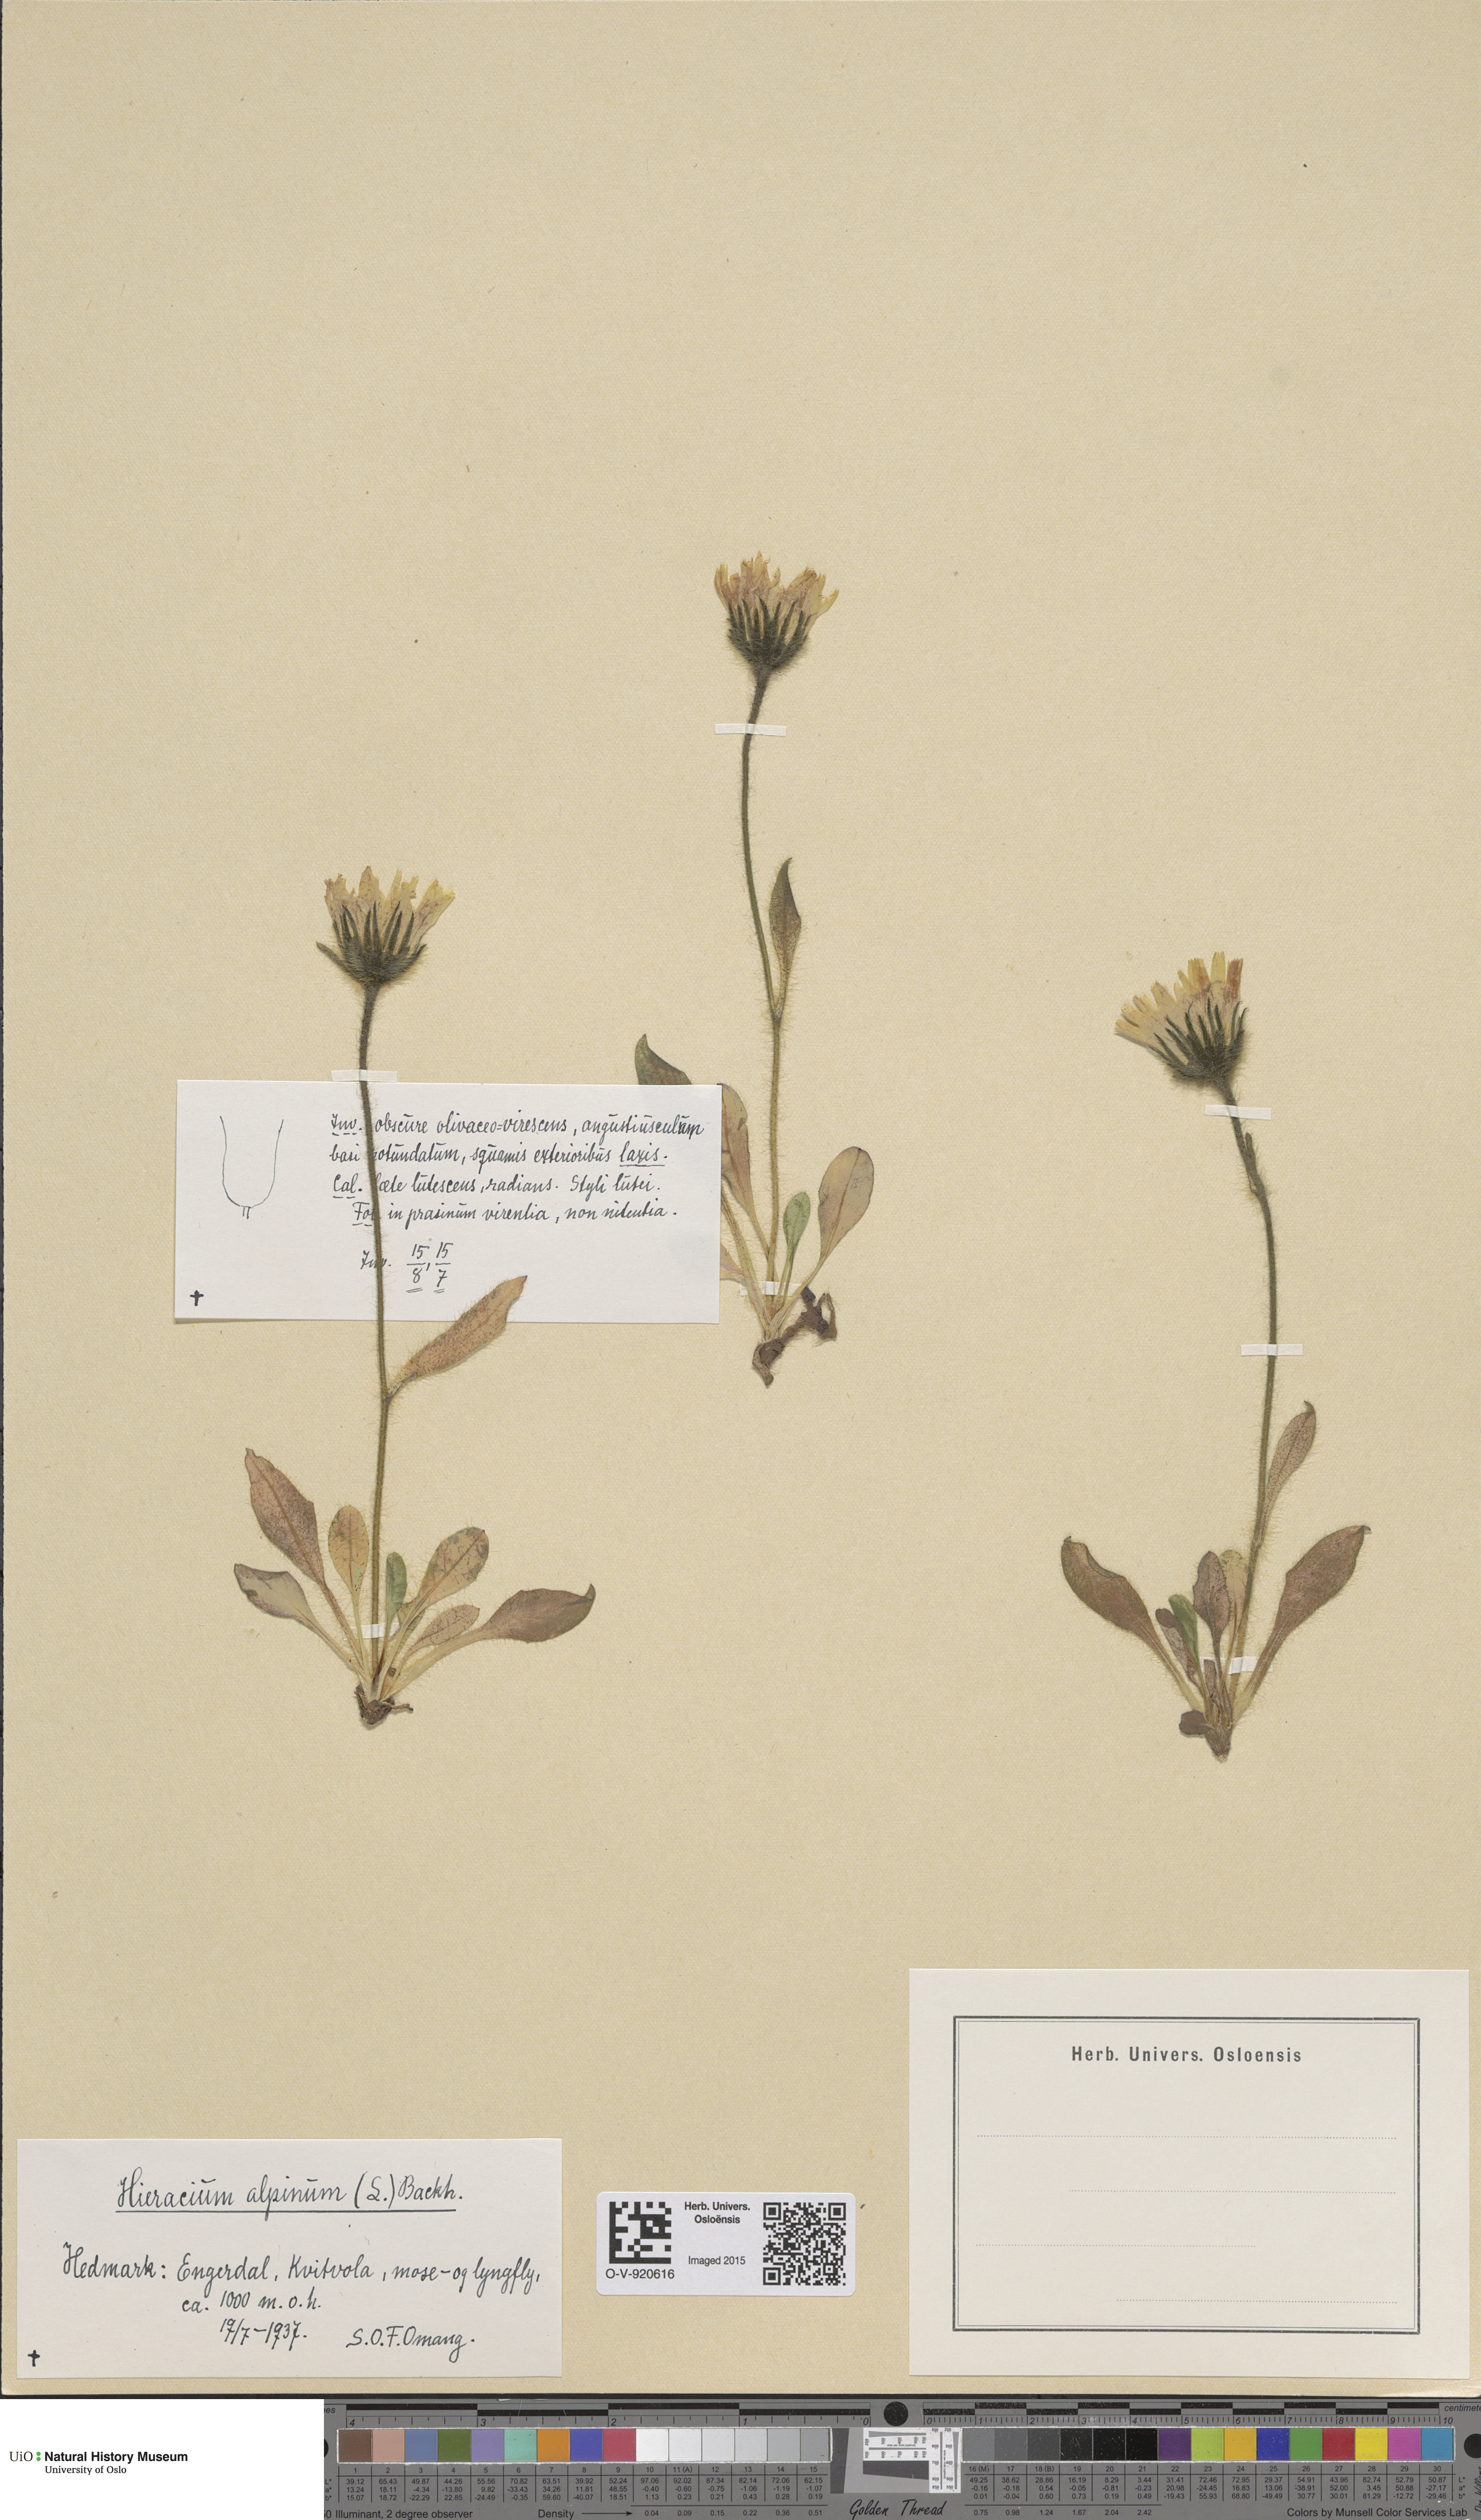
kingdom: Plantae
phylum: Tracheophyta
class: Magnoliopsida
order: Asterales
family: Asteraceae
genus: Hieracium
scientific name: Hieracium alpinum
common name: Alpine hawkweed
